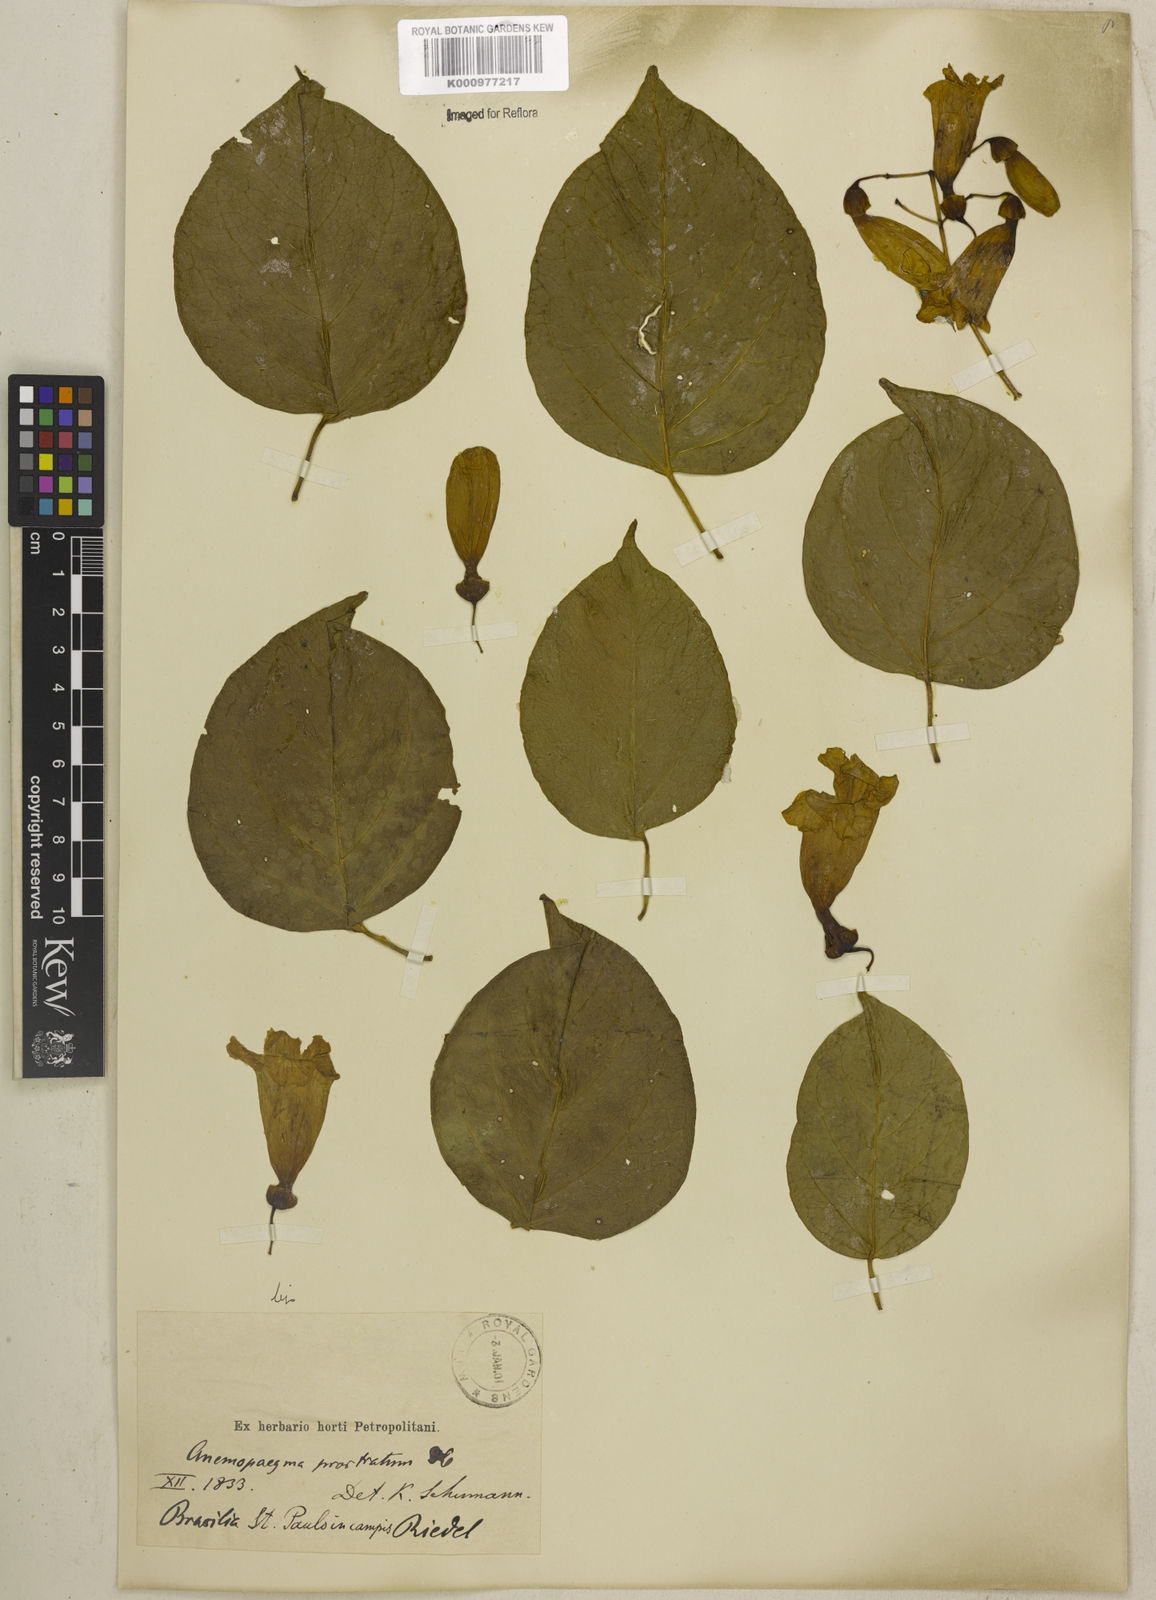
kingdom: Plantae
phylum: Tracheophyta
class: Magnoliopsida
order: Lamiales
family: Bignoniaceae
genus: Anemopaegma
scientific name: Anemopaegma prostratum
